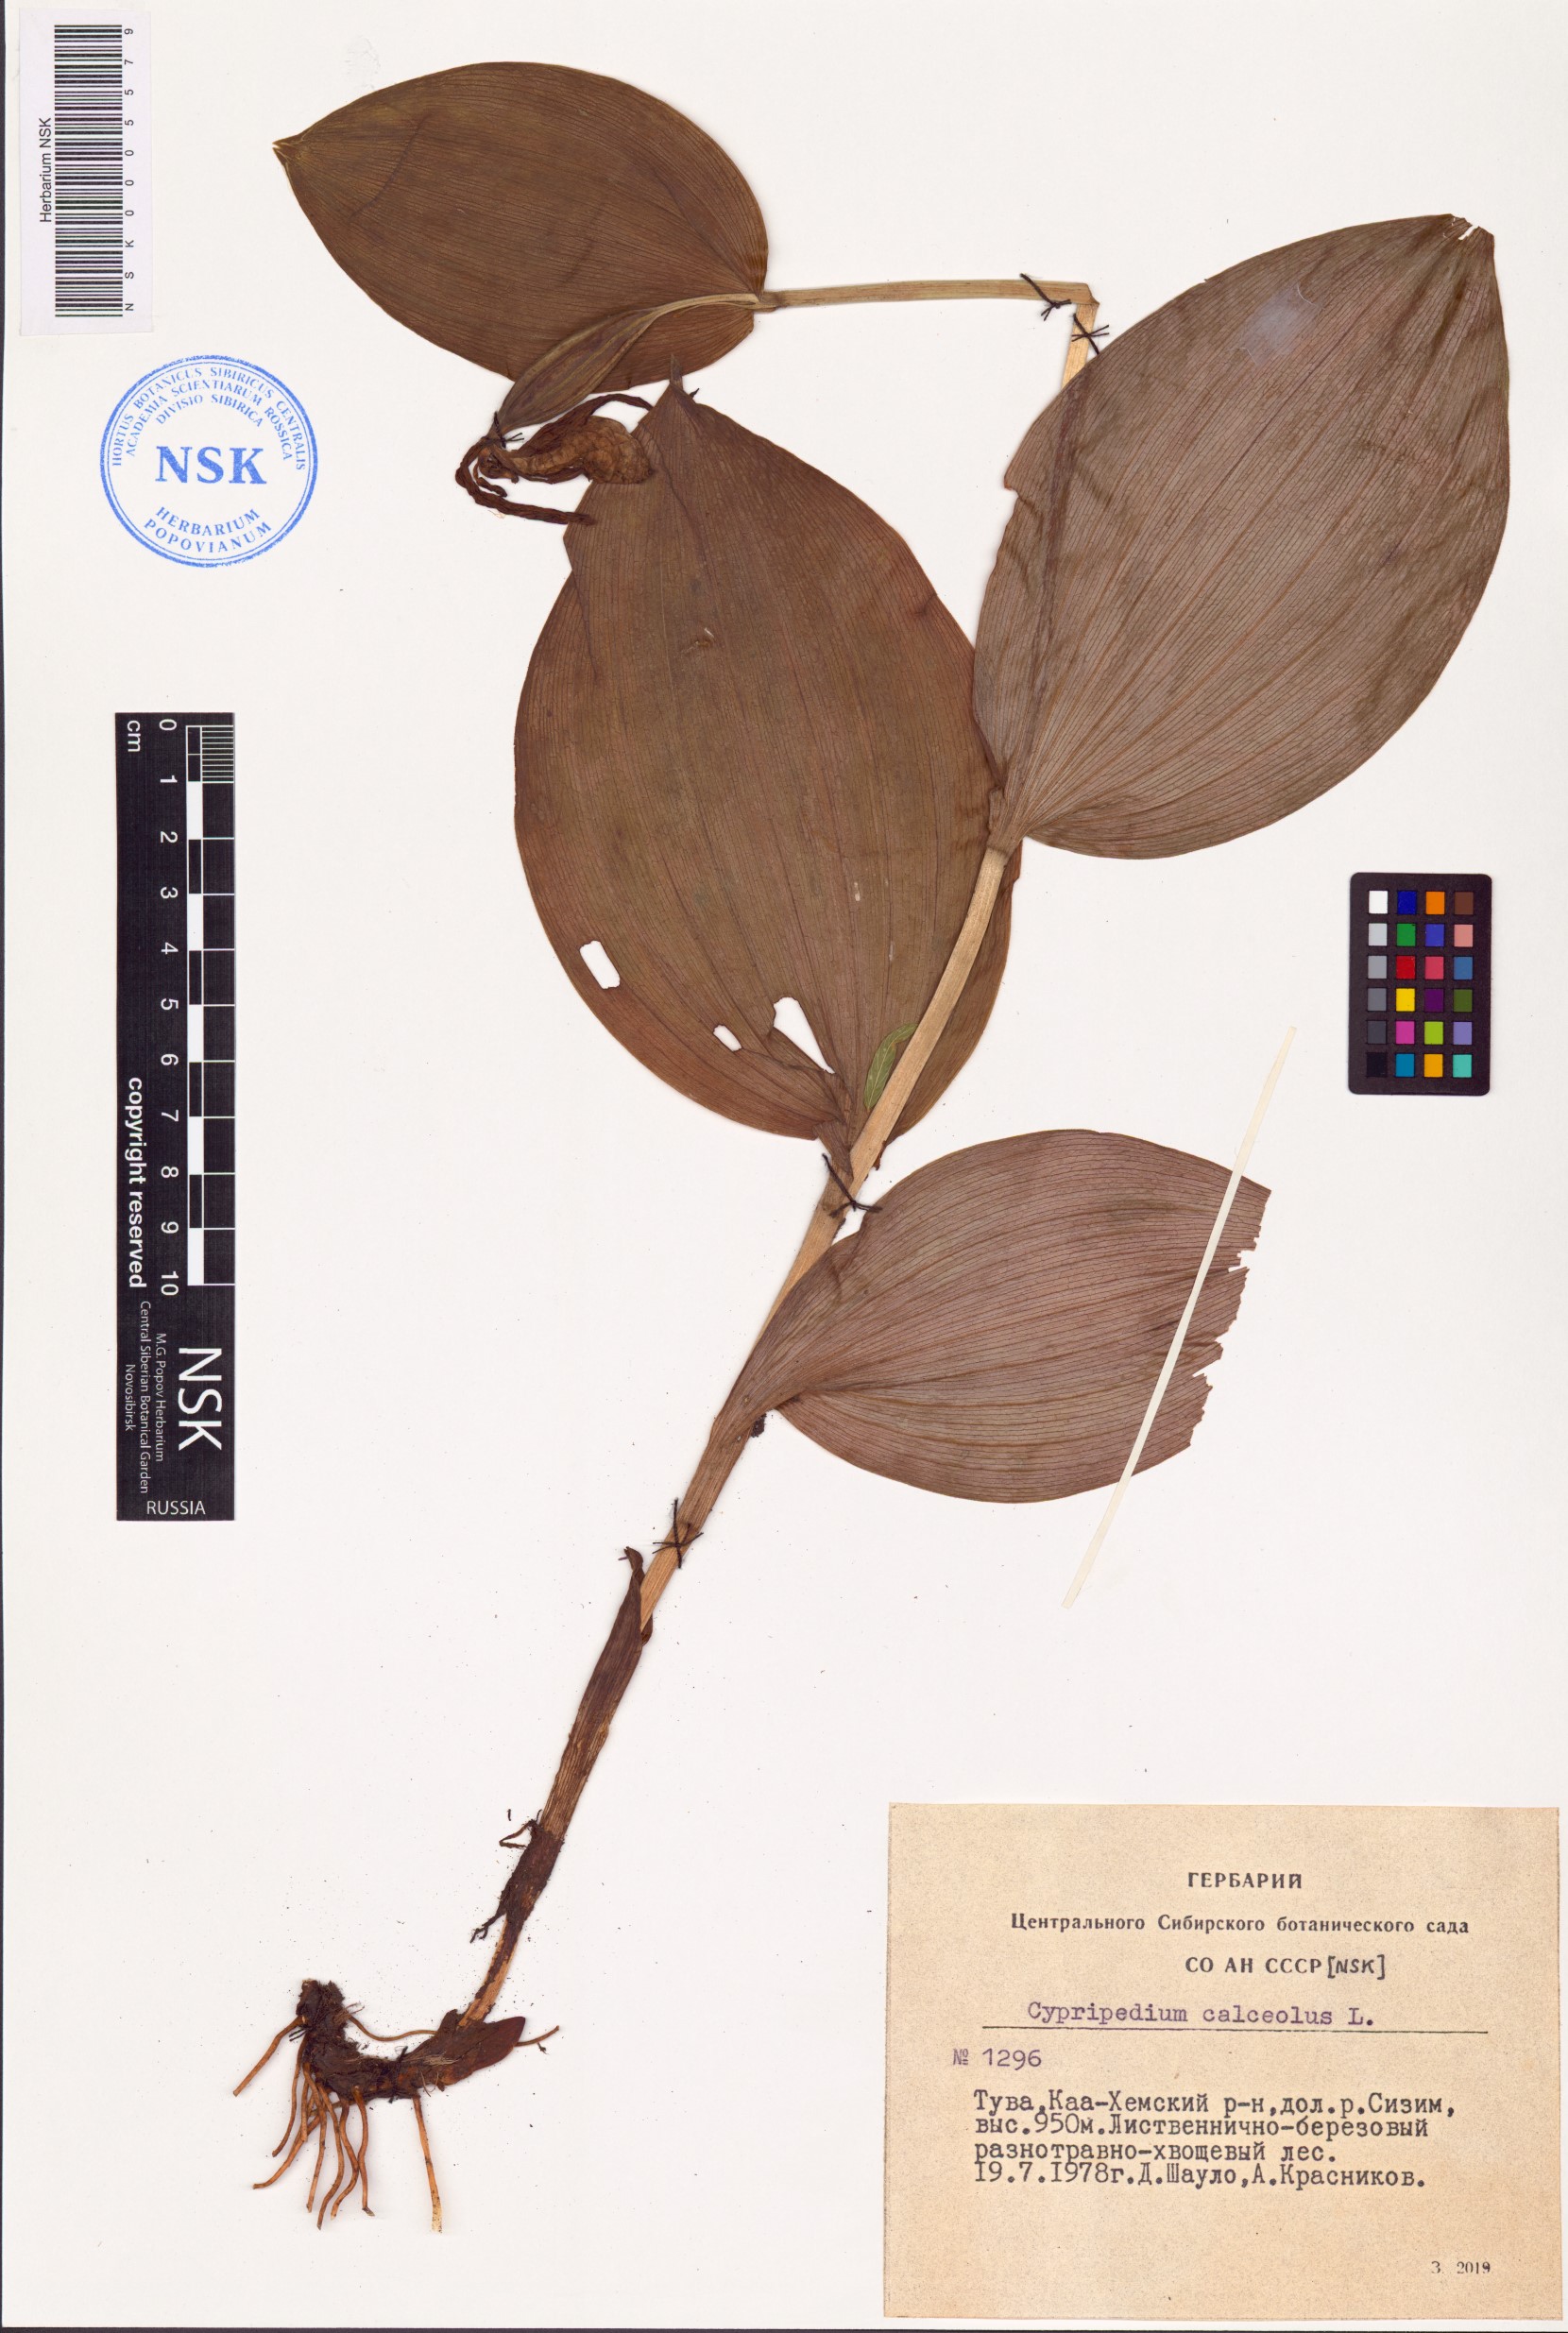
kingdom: Plantae
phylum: Tracheophyta
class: Liliopsida
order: Asparagales
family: Orchidaceae
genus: Cypripedium
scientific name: Cypripedium calceolus
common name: Lady's-slipper
